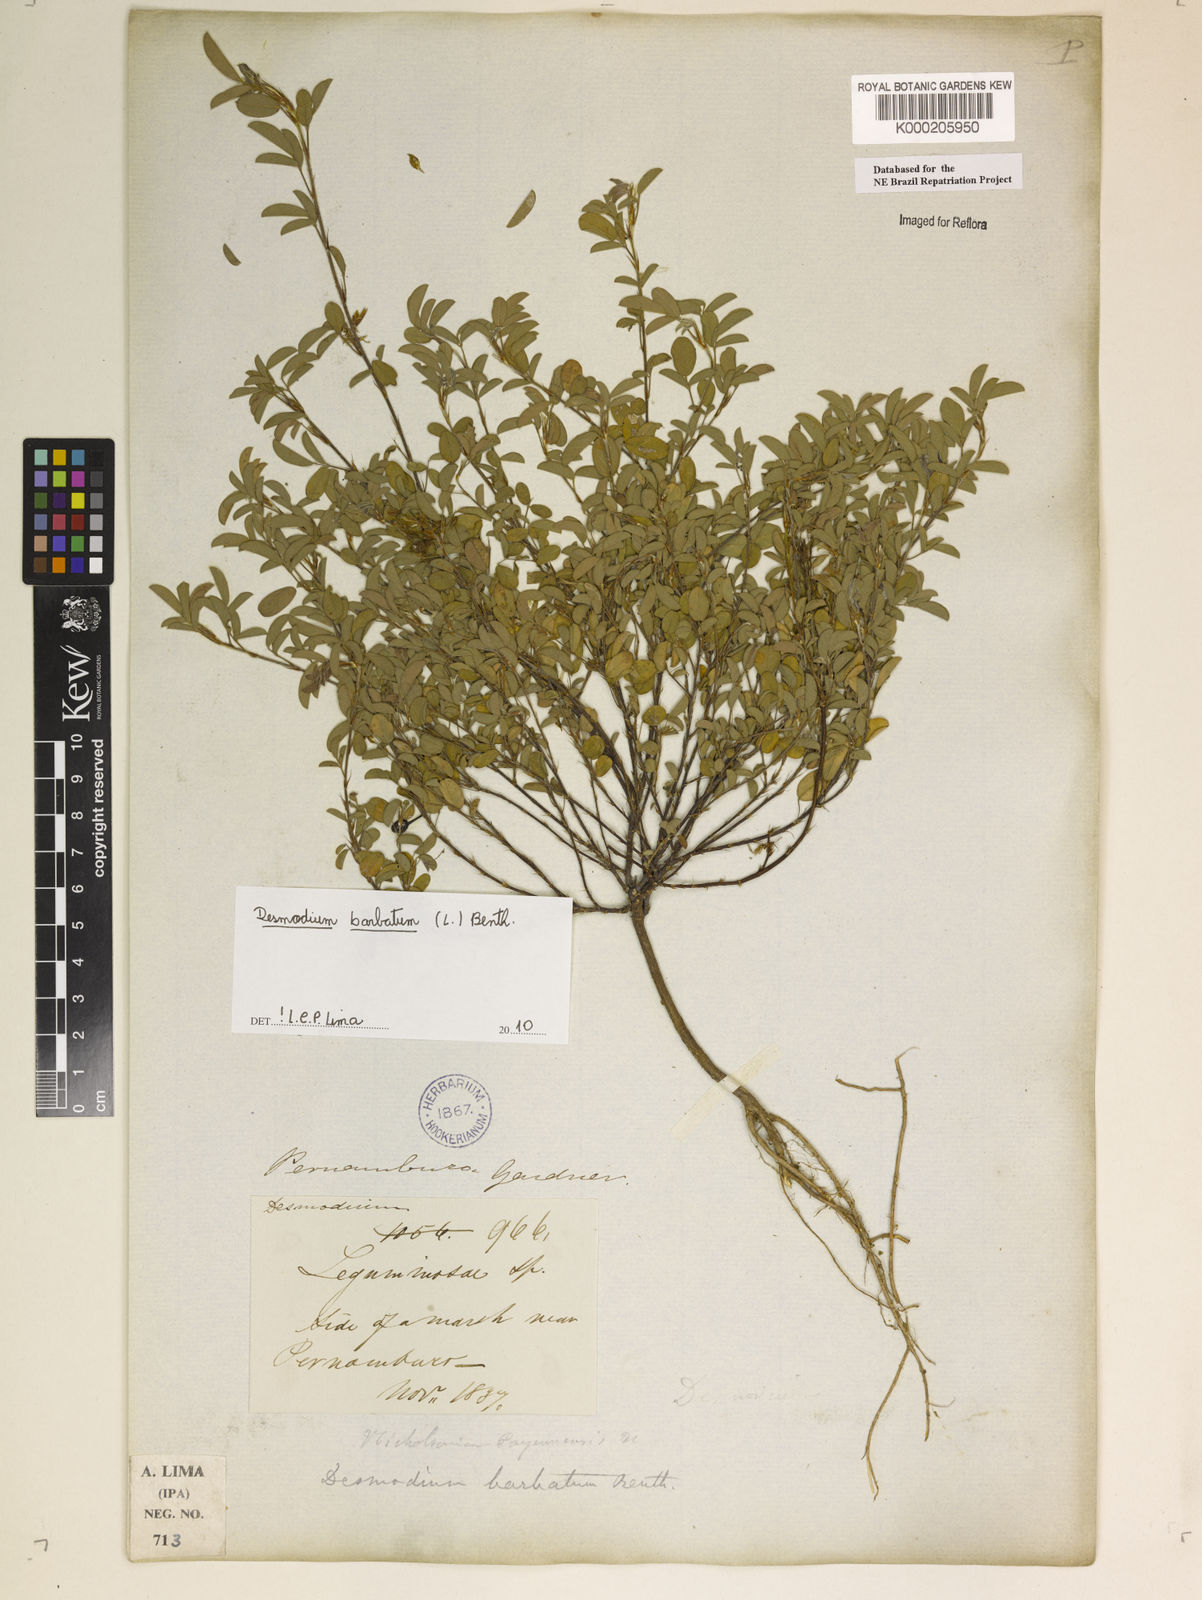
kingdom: Plantae
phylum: Tracheophyta
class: Magnoliopsida
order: Fabales
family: Fabaceae
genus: Grona
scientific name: Grona barbata
